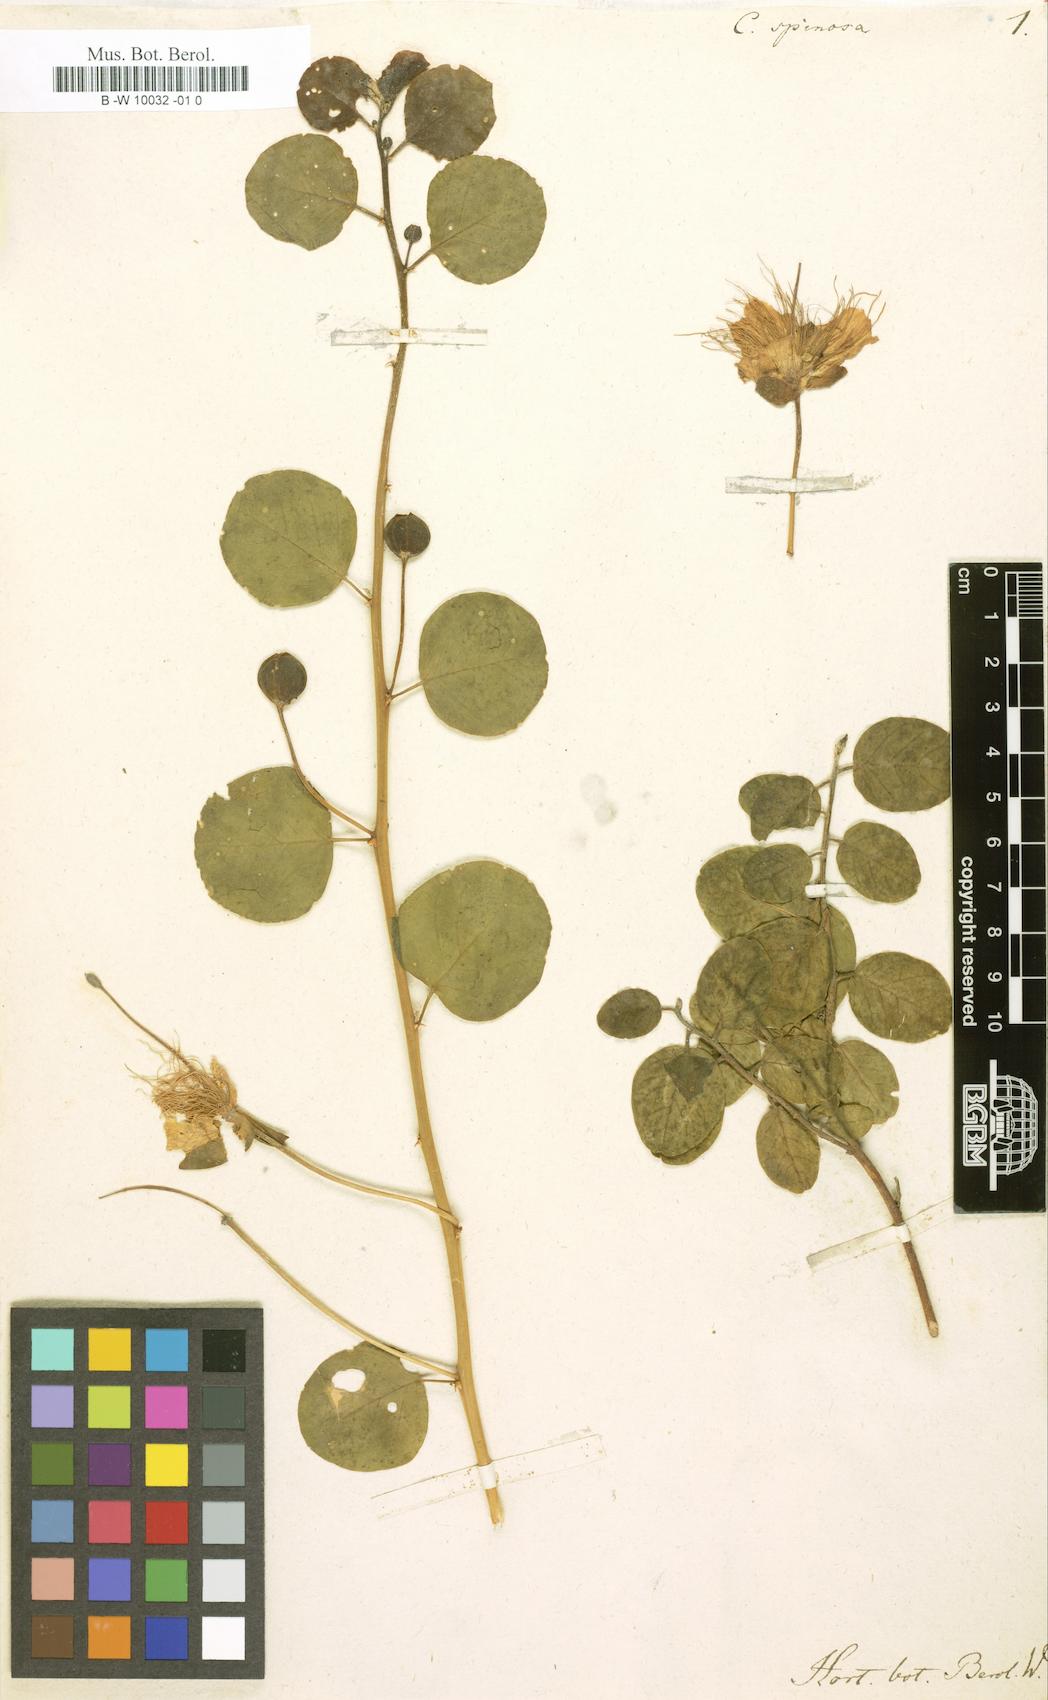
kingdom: Plantae
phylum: Tracheophyta
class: Magnoliopsida
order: Brassicales
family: Capparaceae
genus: Capparis
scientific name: Capparis spinosa
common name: Caper
